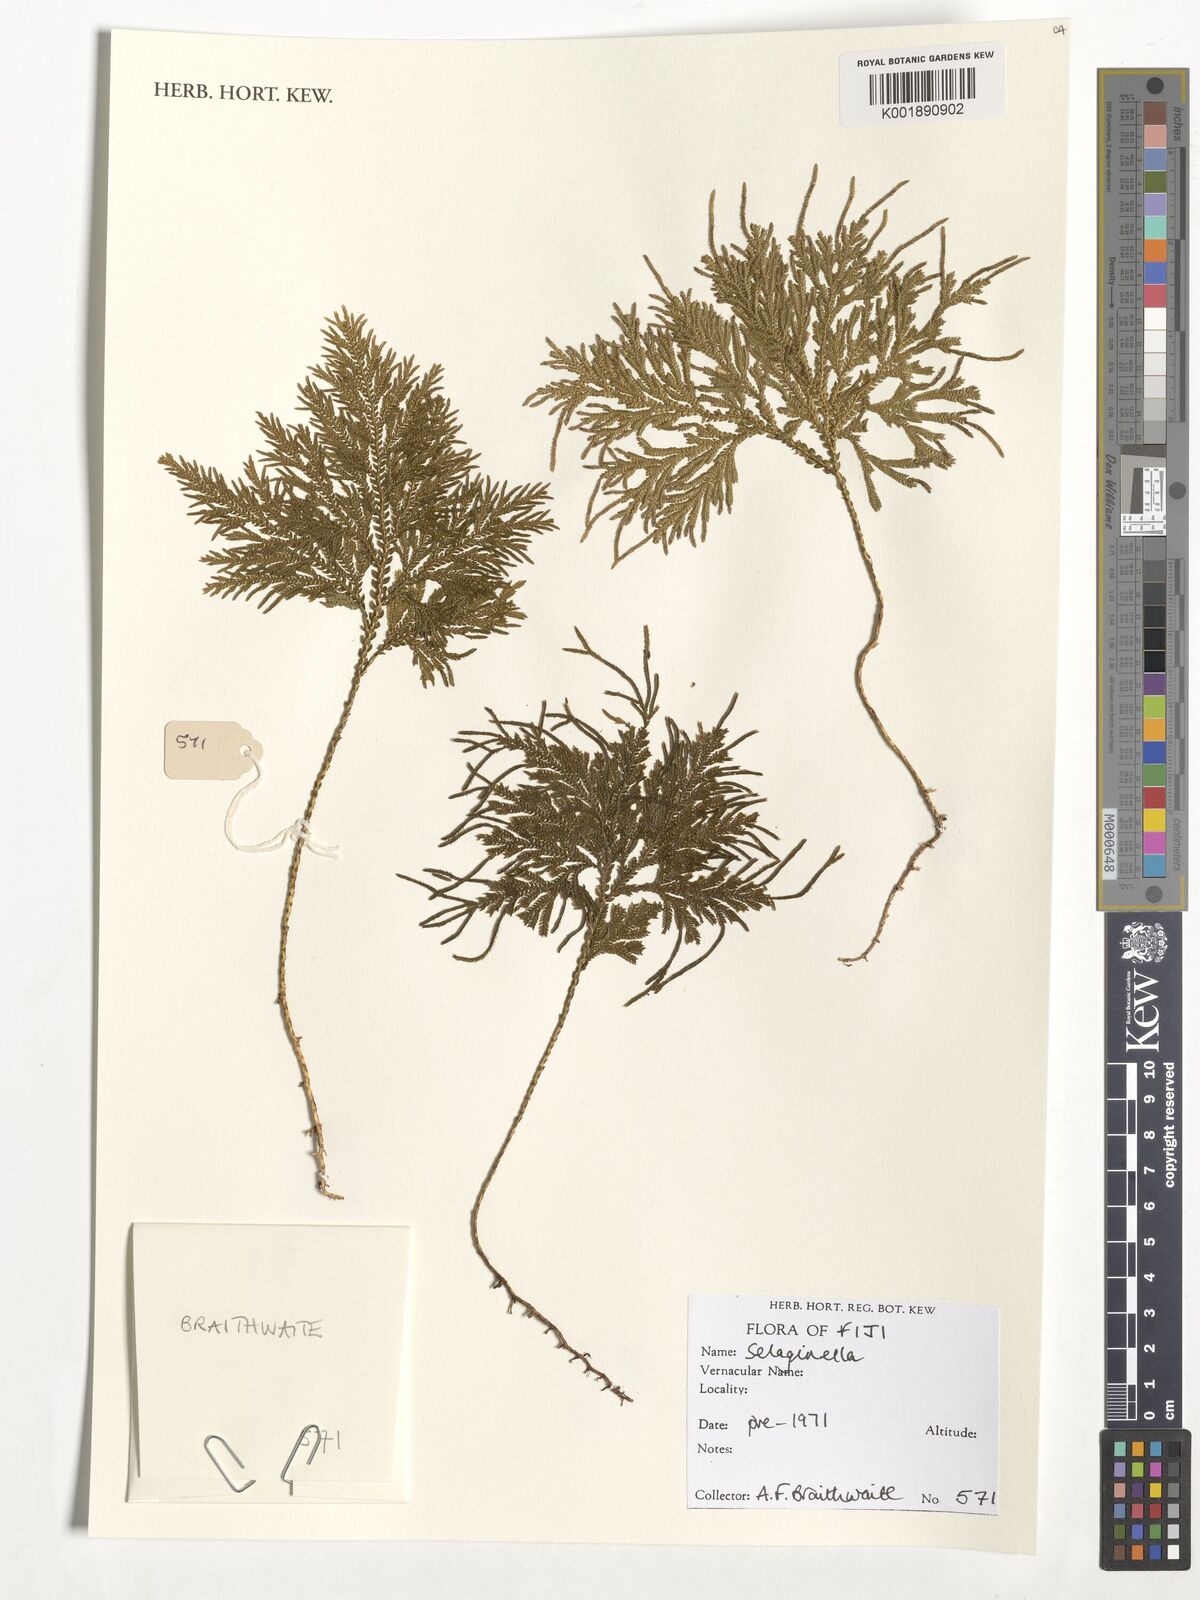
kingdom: Plantae
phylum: Tracheophyta
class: Lycopodiopsida
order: Selaginellales
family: Selaginellaceae
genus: Selaginella
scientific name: Selaginella
